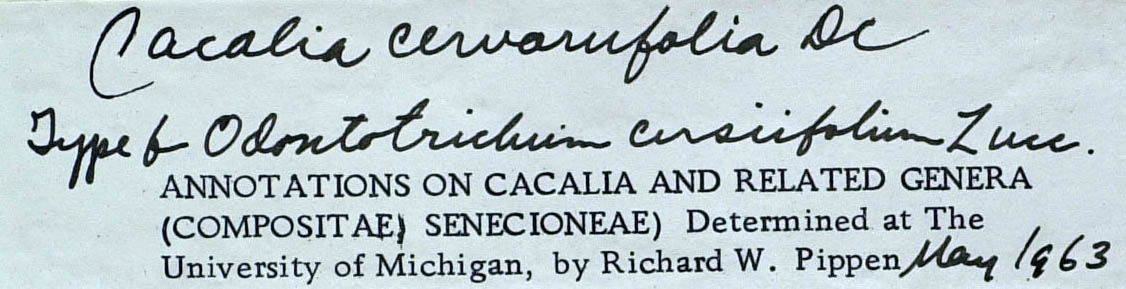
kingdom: Plantae
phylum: Tracheophyta
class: Magnoliopsida
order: Asterales
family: Asteraceae
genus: Psacalium
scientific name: Psacalium cirsiifolium
